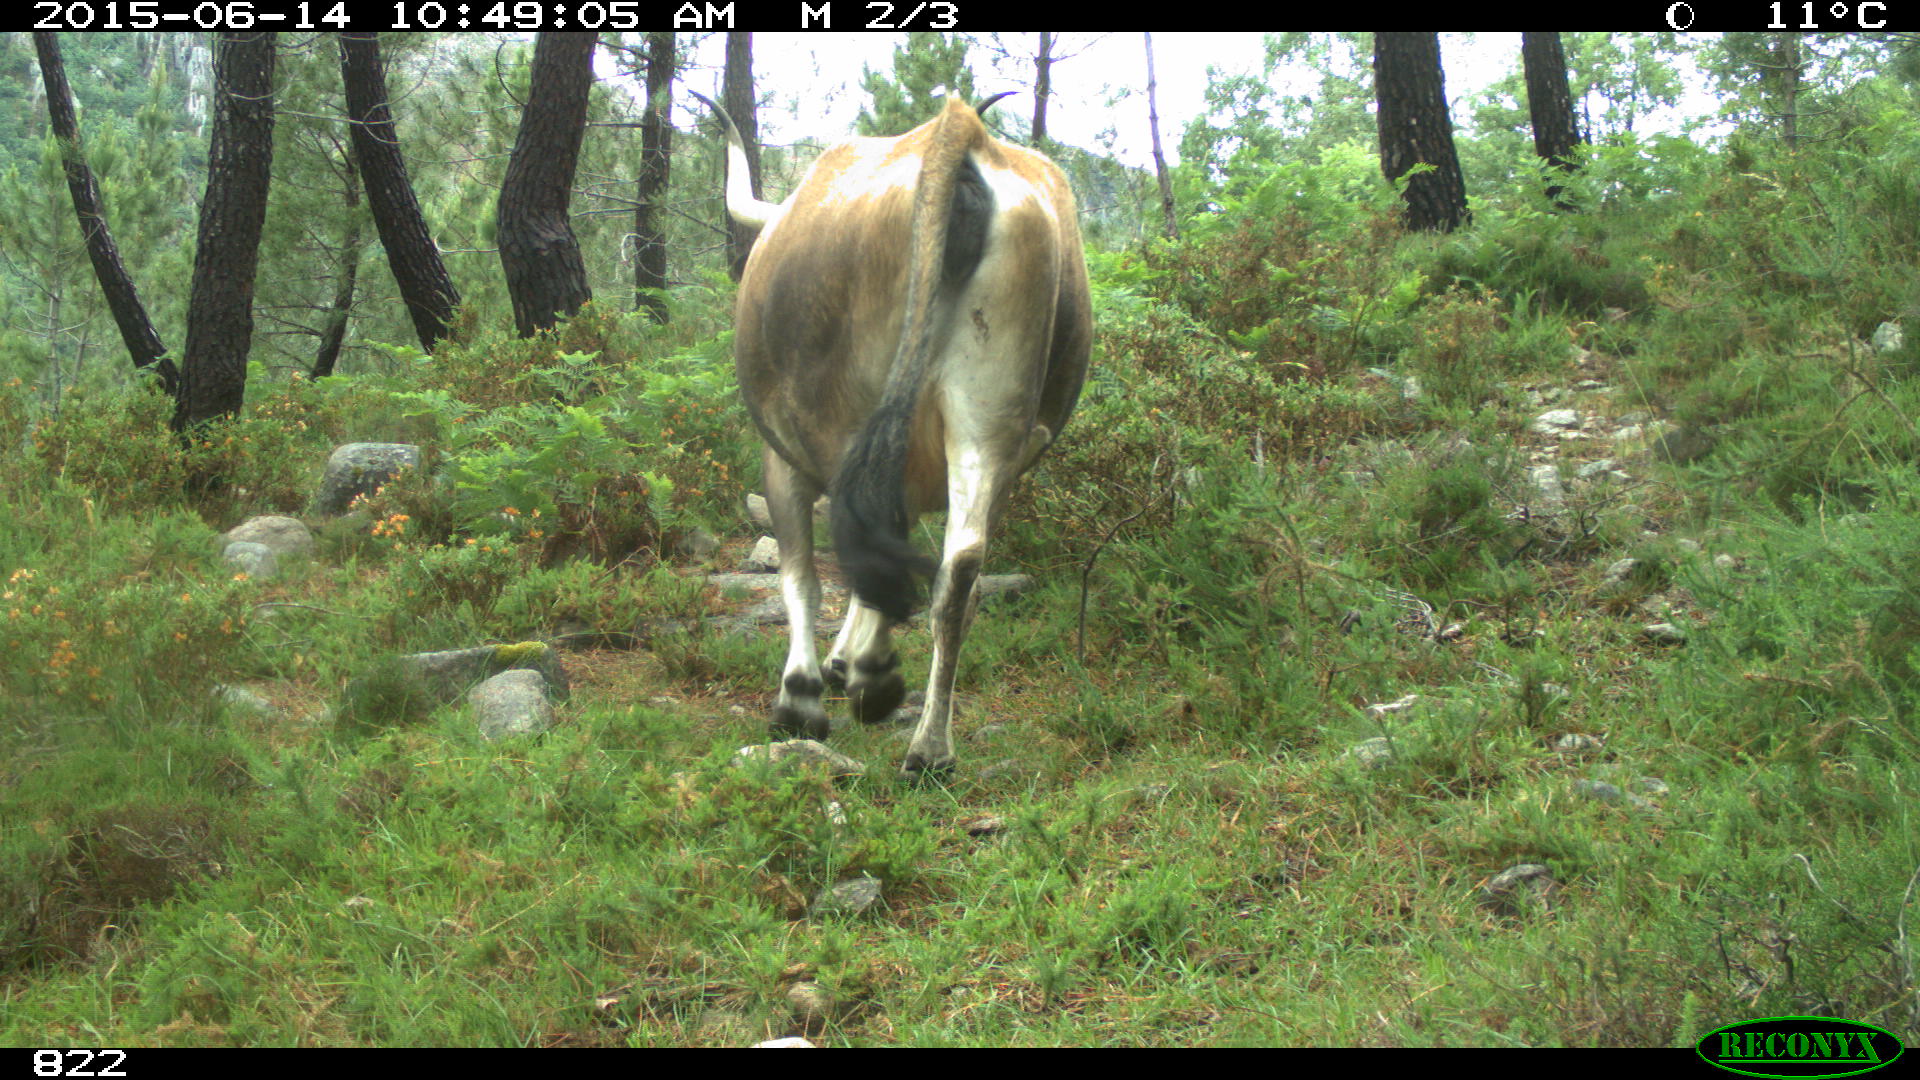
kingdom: Animalia
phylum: Chordata
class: Mammalia
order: Artiodactyla
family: Bovidae
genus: Bos
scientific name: Bos taurus
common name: Domesticated cattle
